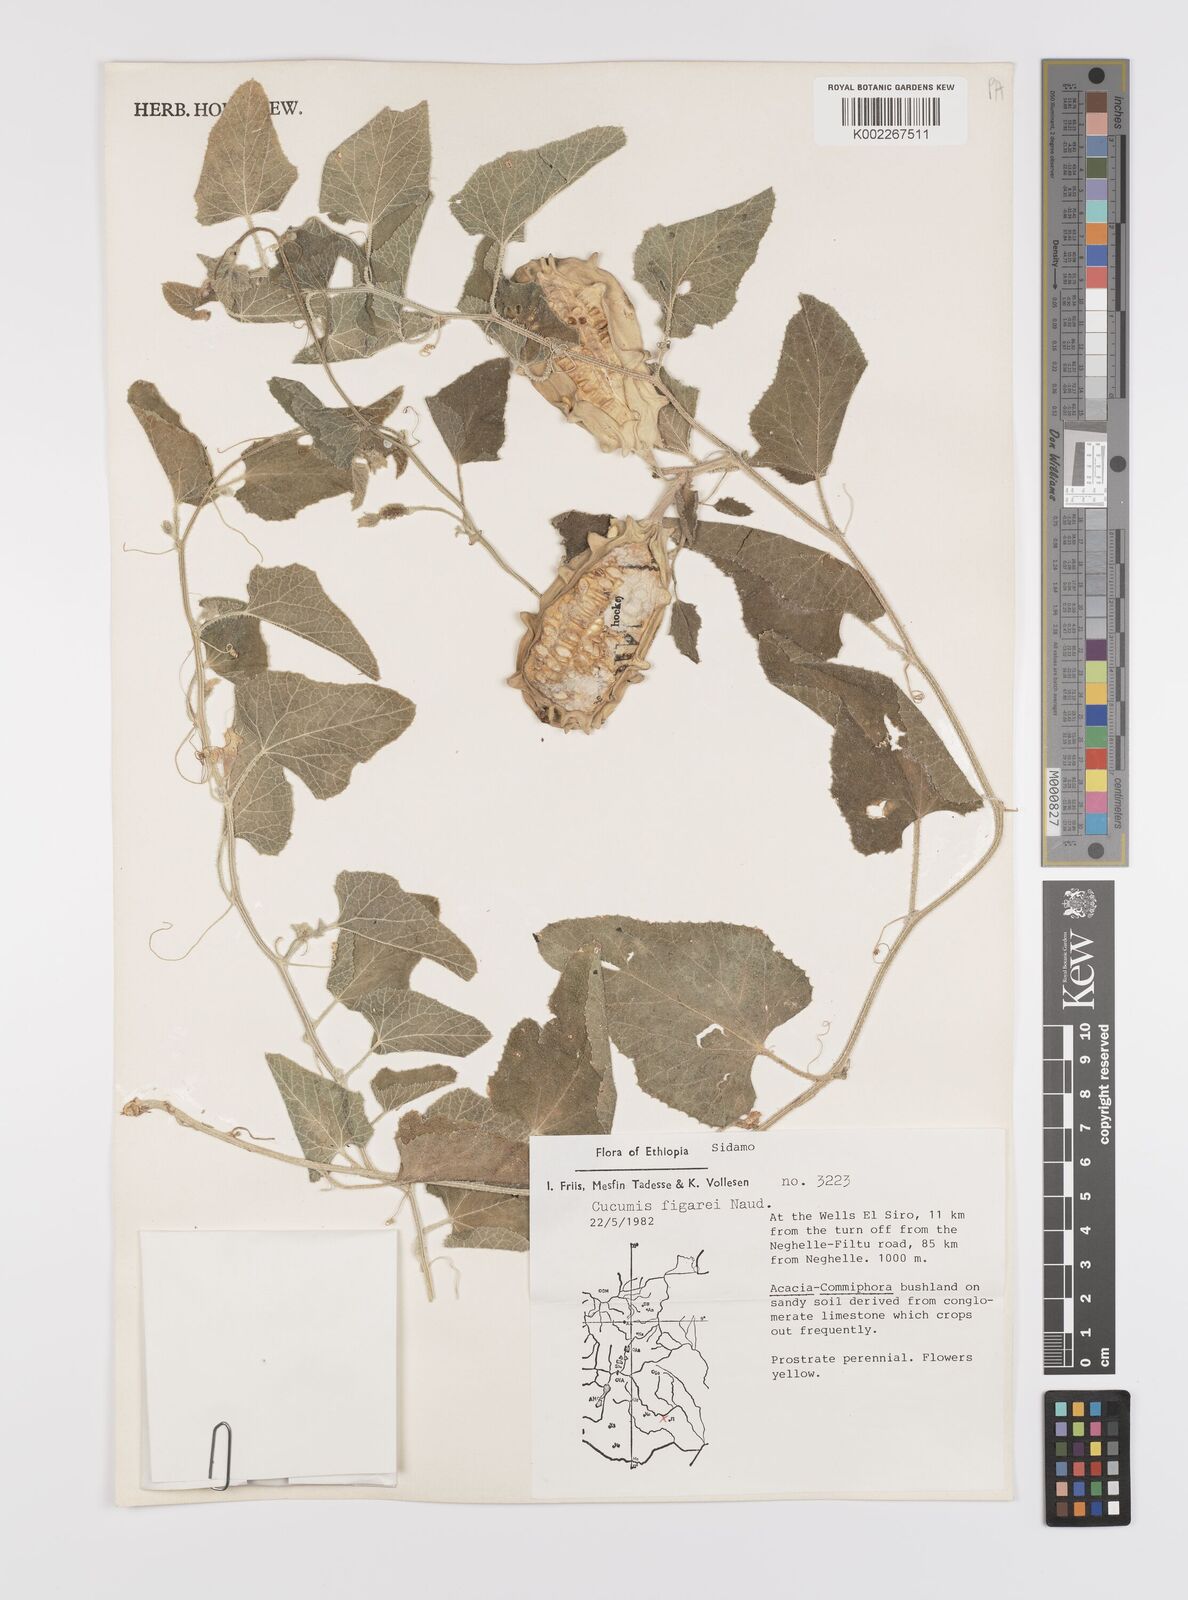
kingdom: Plantae
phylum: Tracheophyta
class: Magnoliopsida
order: Cucurbitales
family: Cucurbitaceae
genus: Cucumis
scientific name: Cucumis pustulatus
